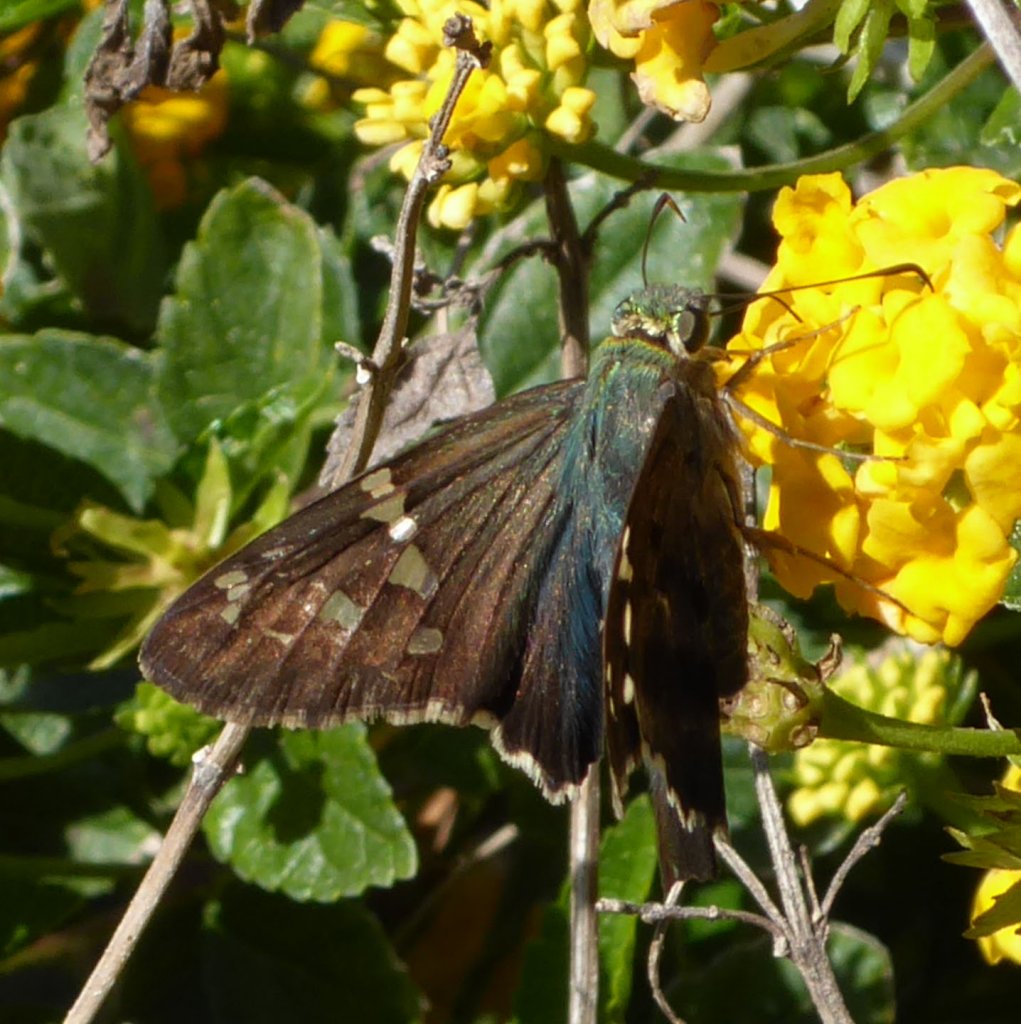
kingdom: Animalia
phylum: Arthropoda
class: Insecta
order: Lepidoptera
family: Hesperiidae
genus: Urbanus
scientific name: Urbanus proteus
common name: Long-tailed Skipper
